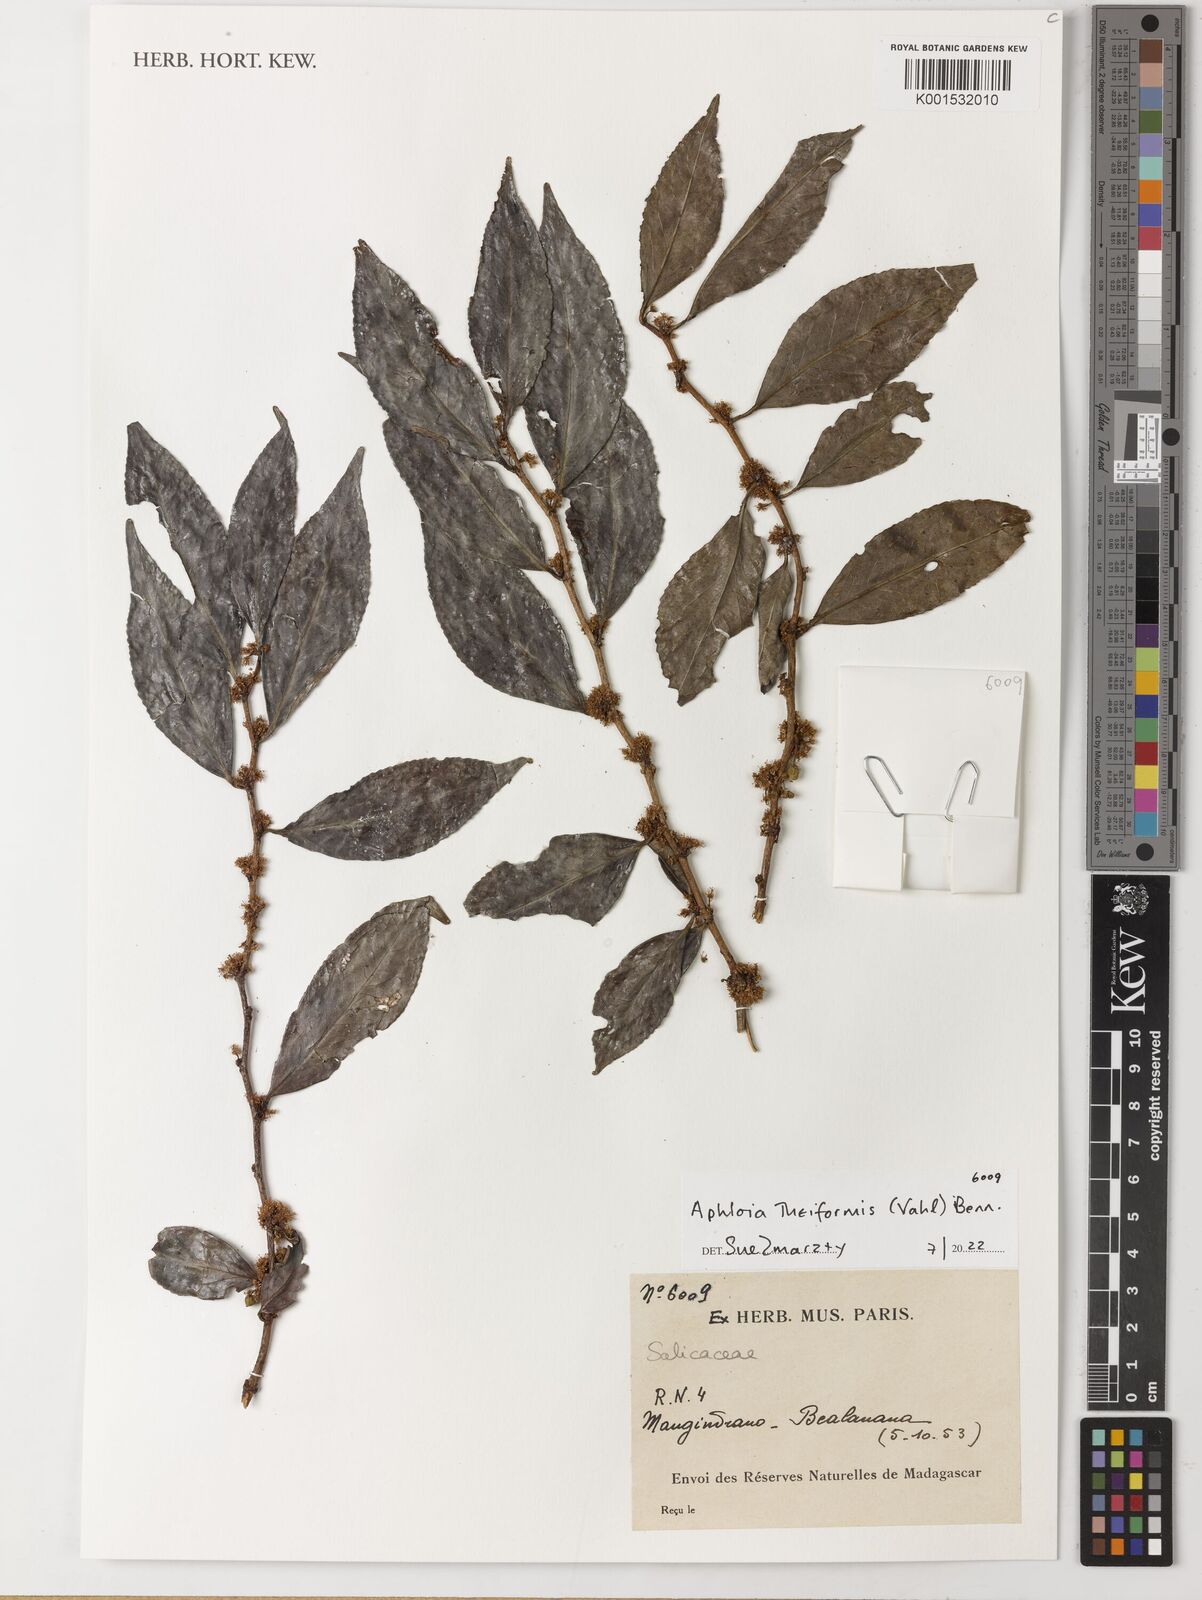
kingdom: Plantae
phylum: Tracheophyta
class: Magnoliopsida
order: Malpighiales
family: Salicaceae
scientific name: Salicaceae
